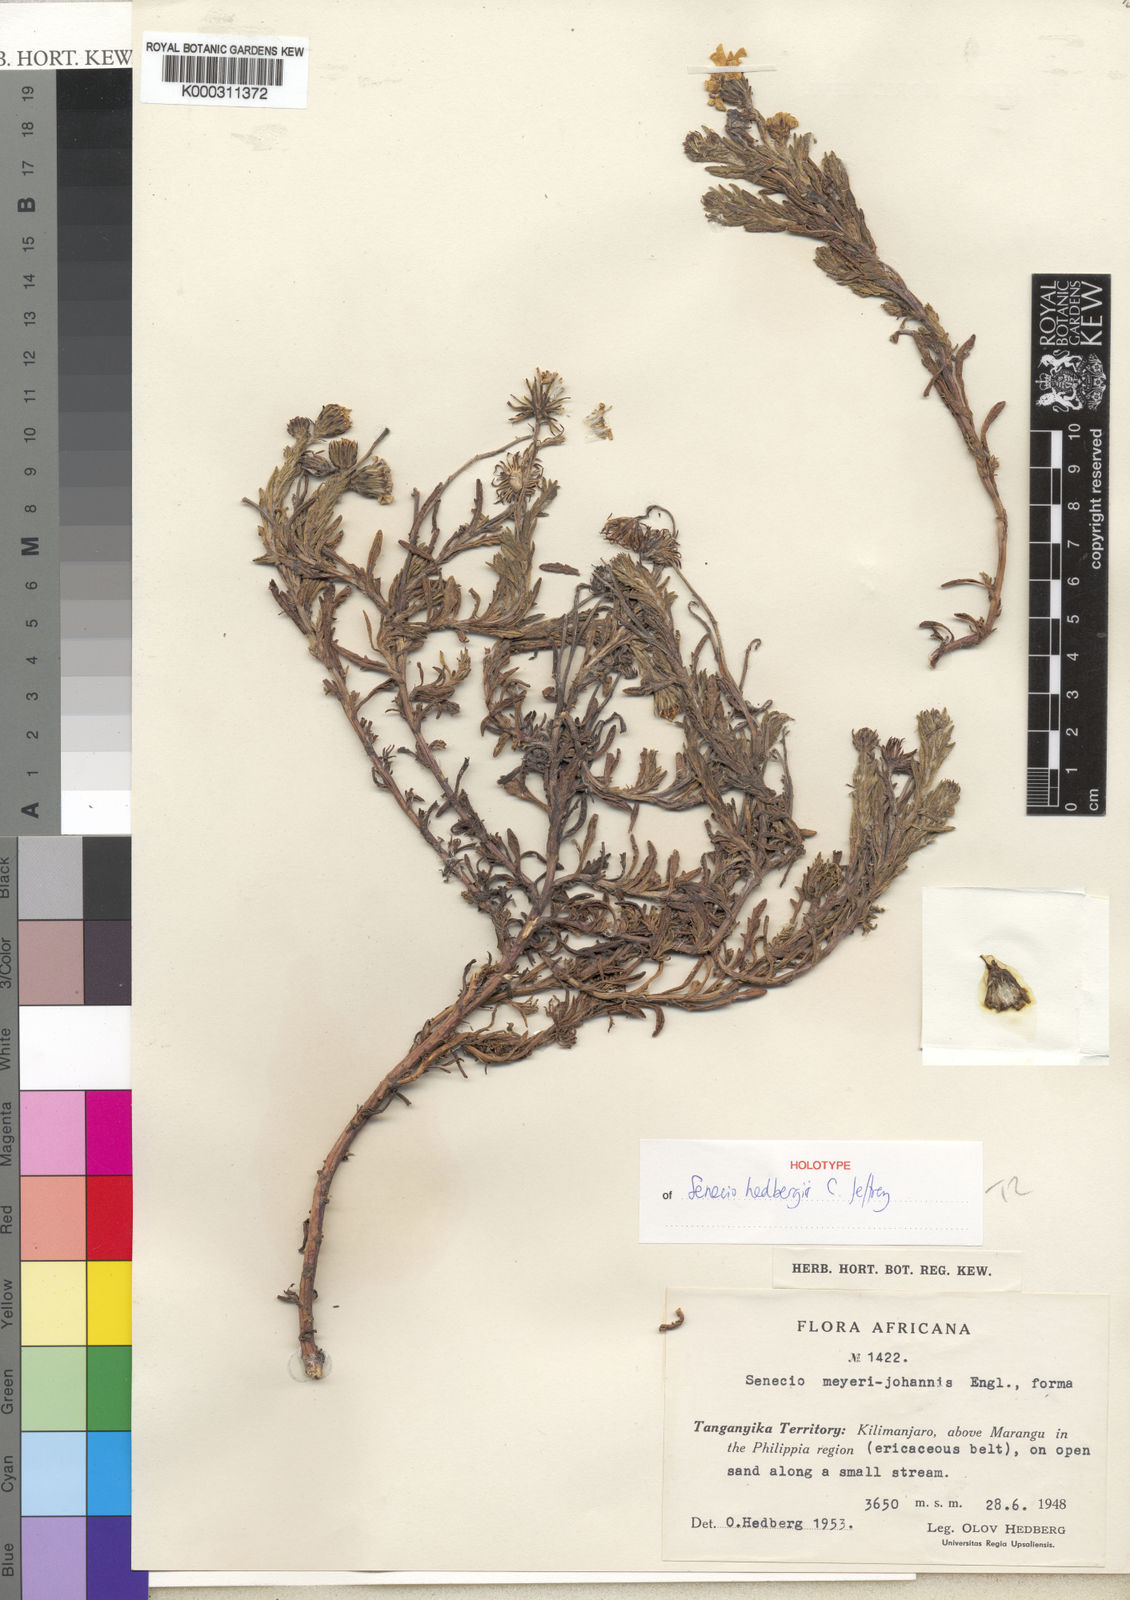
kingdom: Plantae
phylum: Tracheophyta
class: Magnoliopsida
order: Asterales
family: Asteraceae
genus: Senecio
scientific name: Senecio hedbergii
